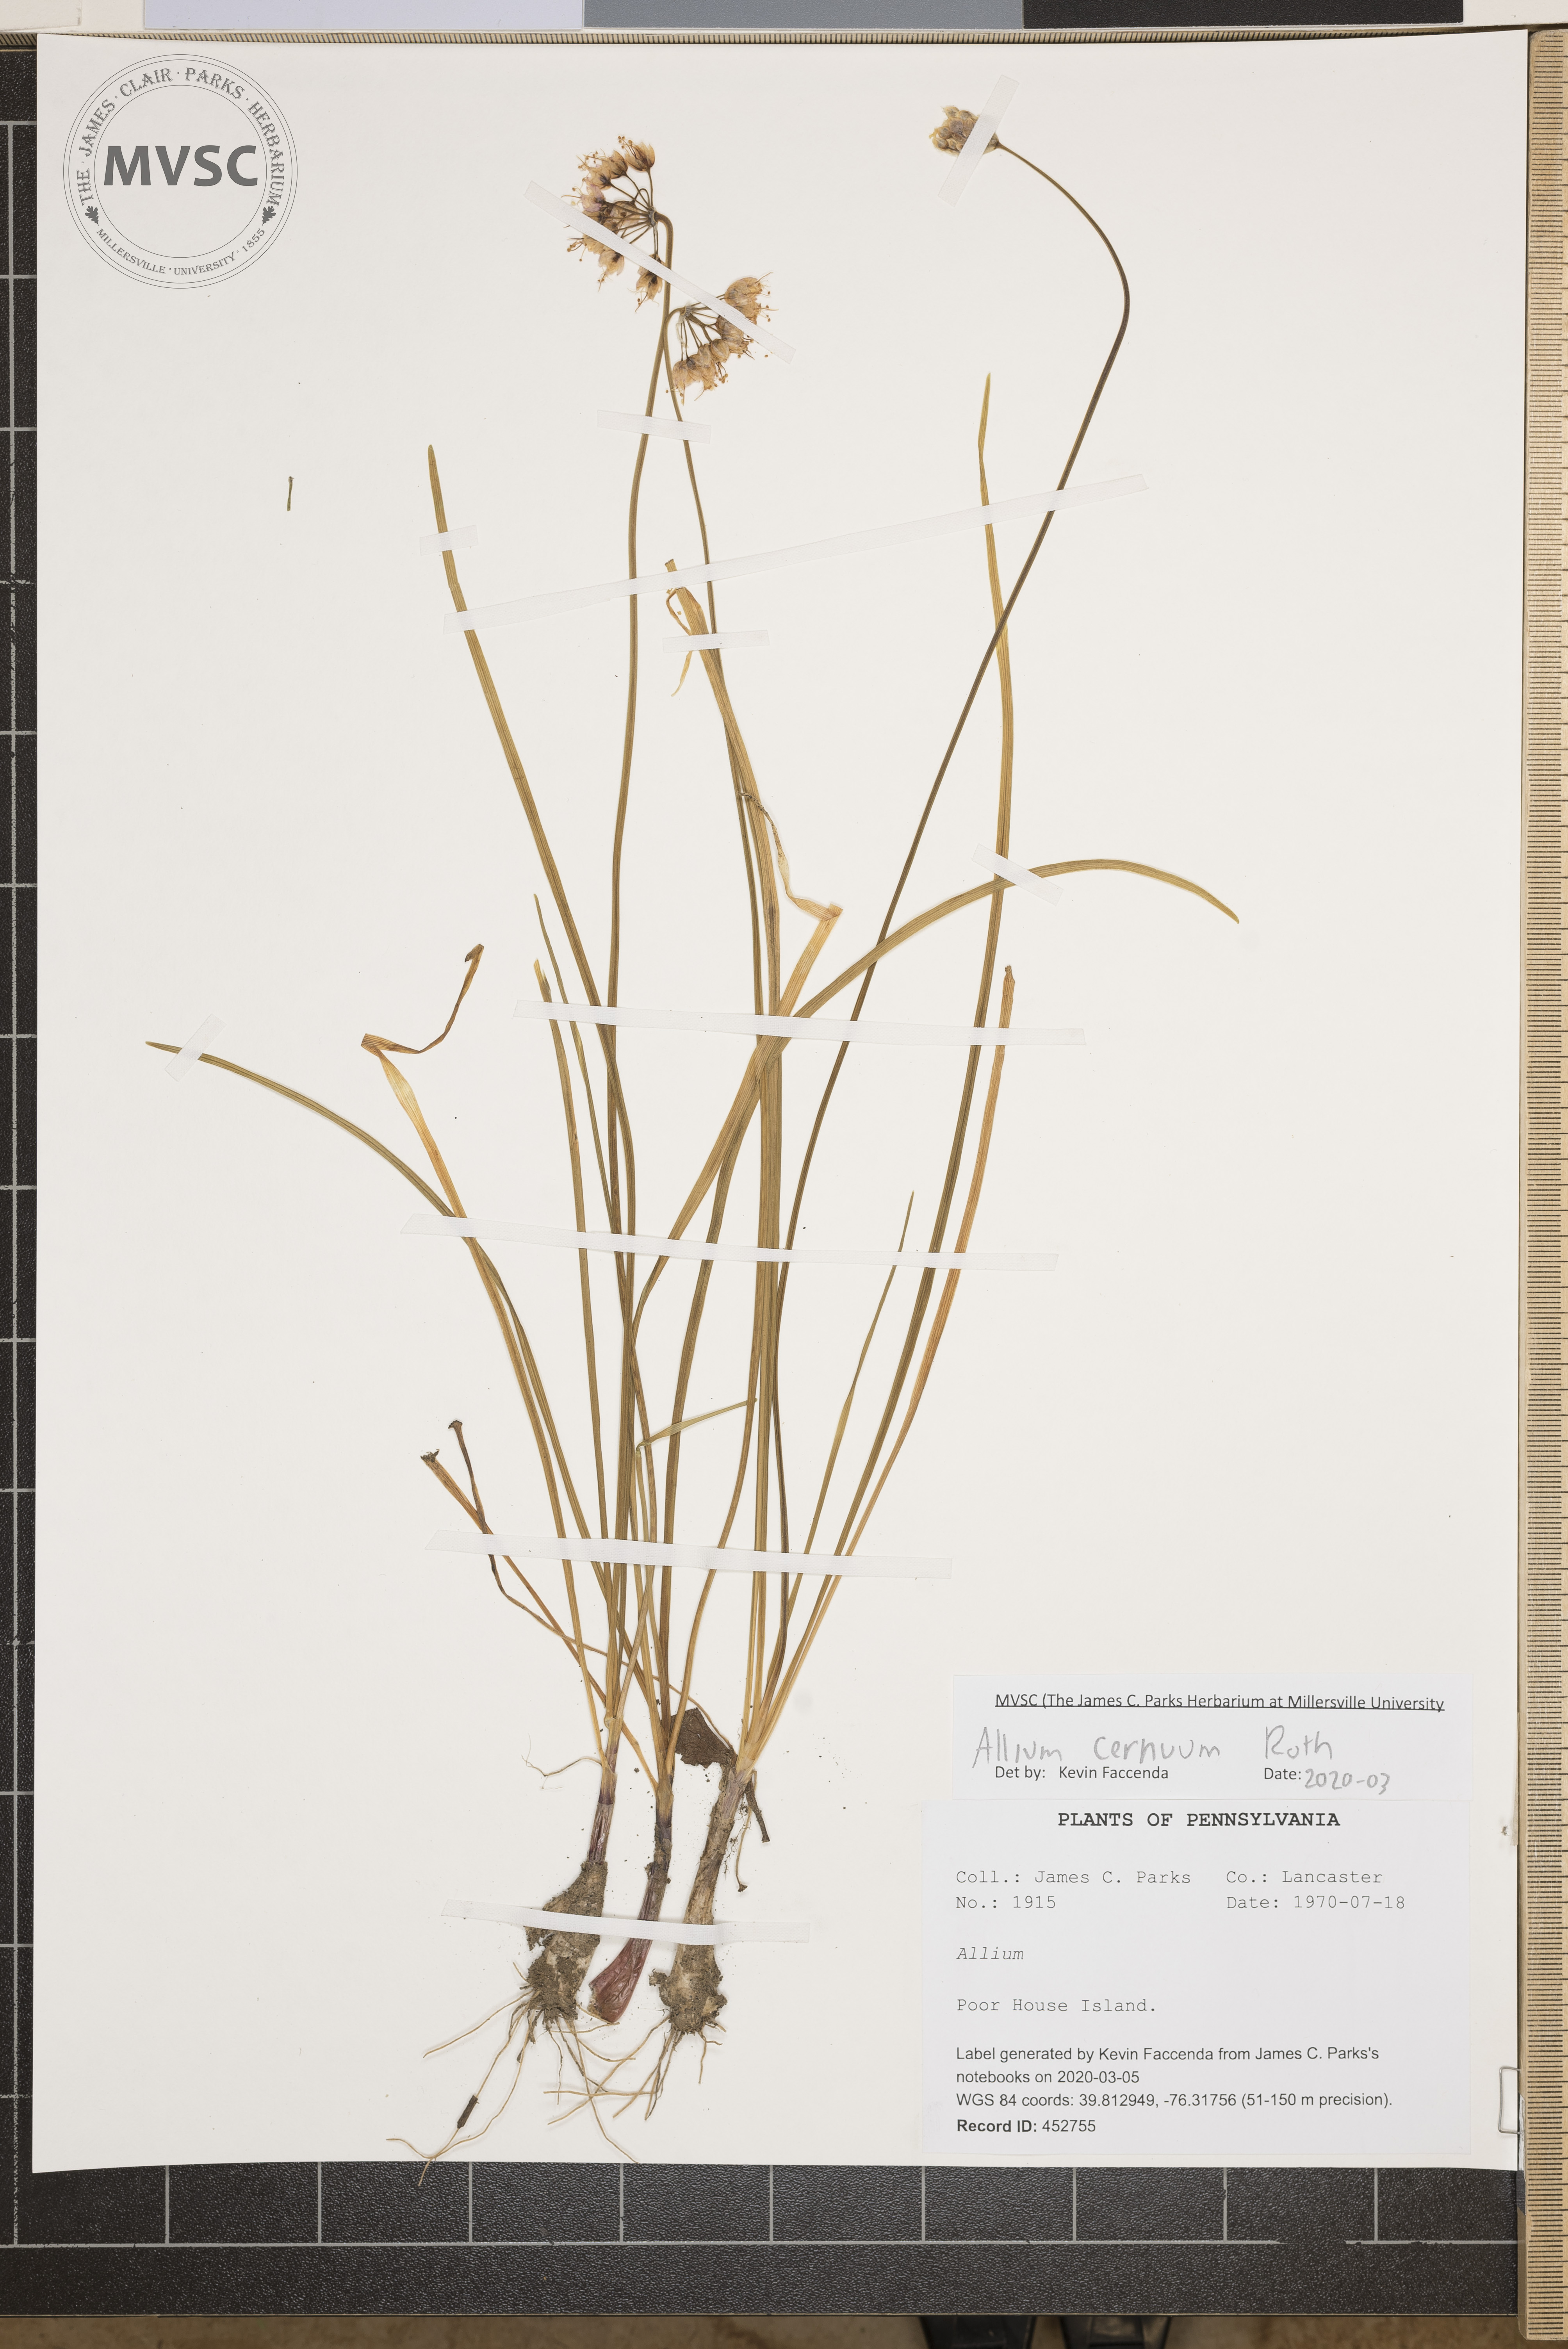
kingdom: Plantae
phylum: Tracheophyta
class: Liliopsida
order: Asparagales
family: Amaryllidaceae
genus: Allium
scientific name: Allium cernuum
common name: Nodding onion
